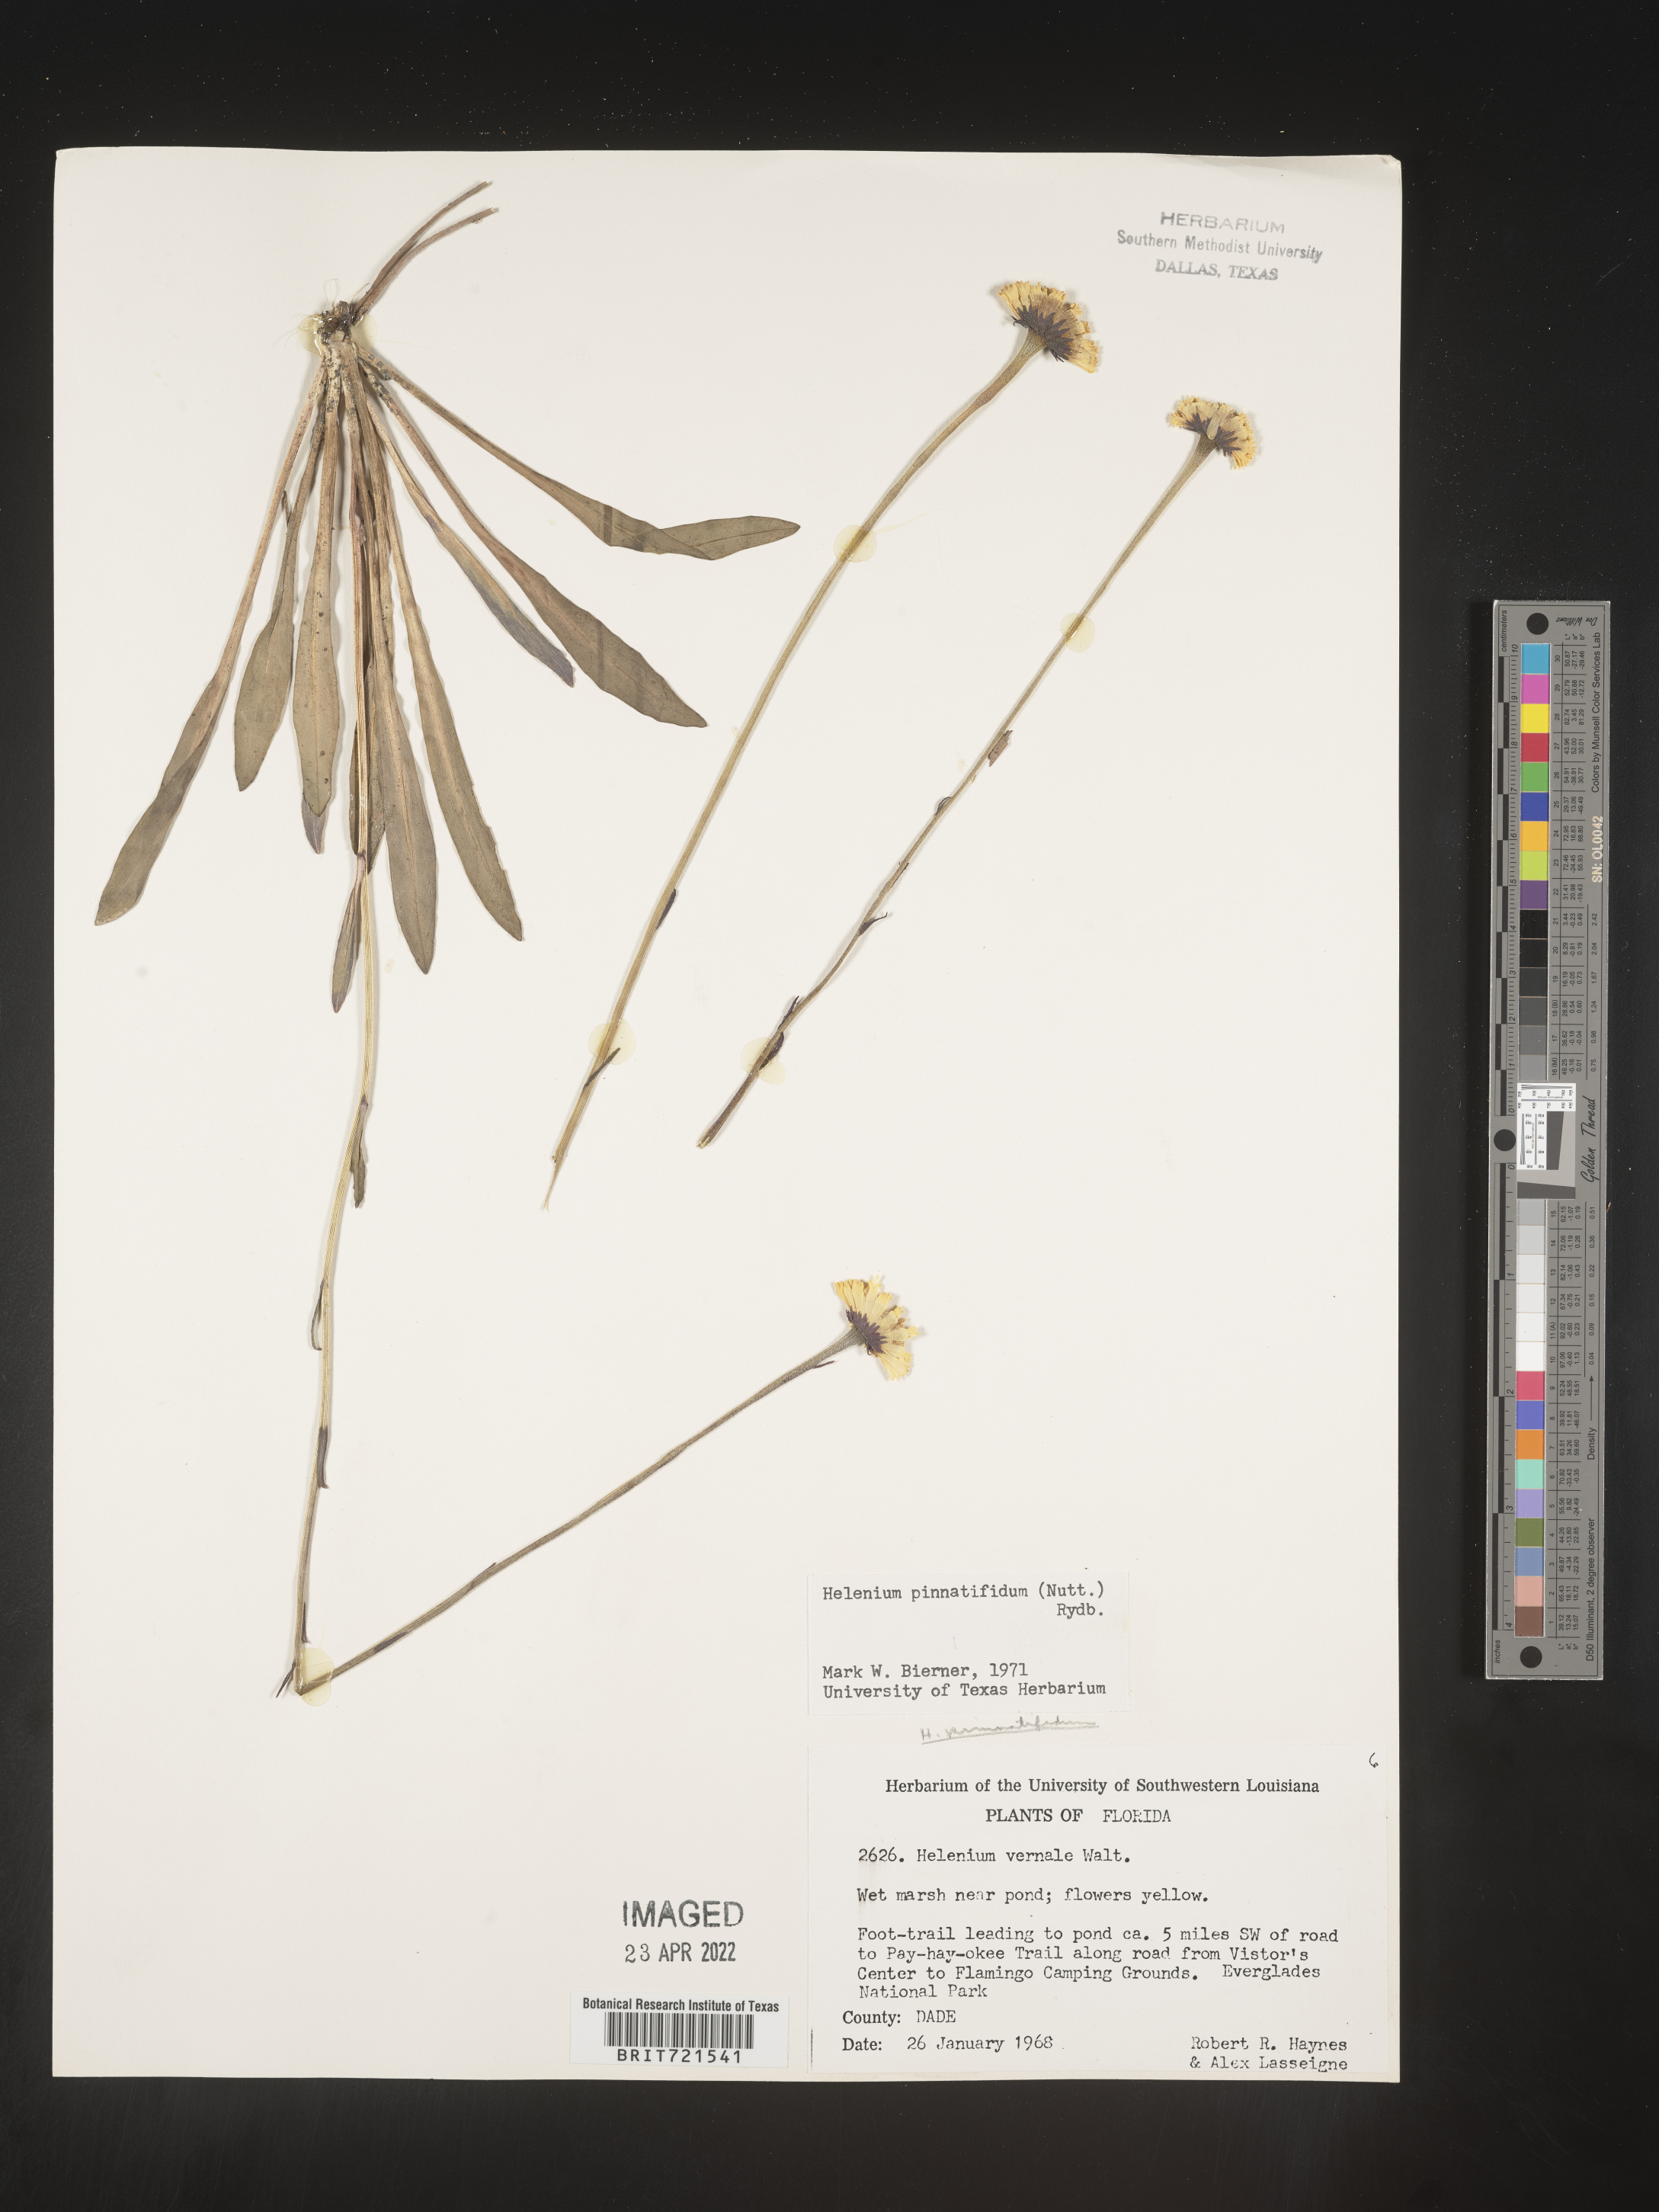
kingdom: Plantae
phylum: Tracheophyta
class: Magnoliopsida
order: Asterales
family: Asteraceae
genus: Helenium
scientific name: Helenium pinnatifidum
